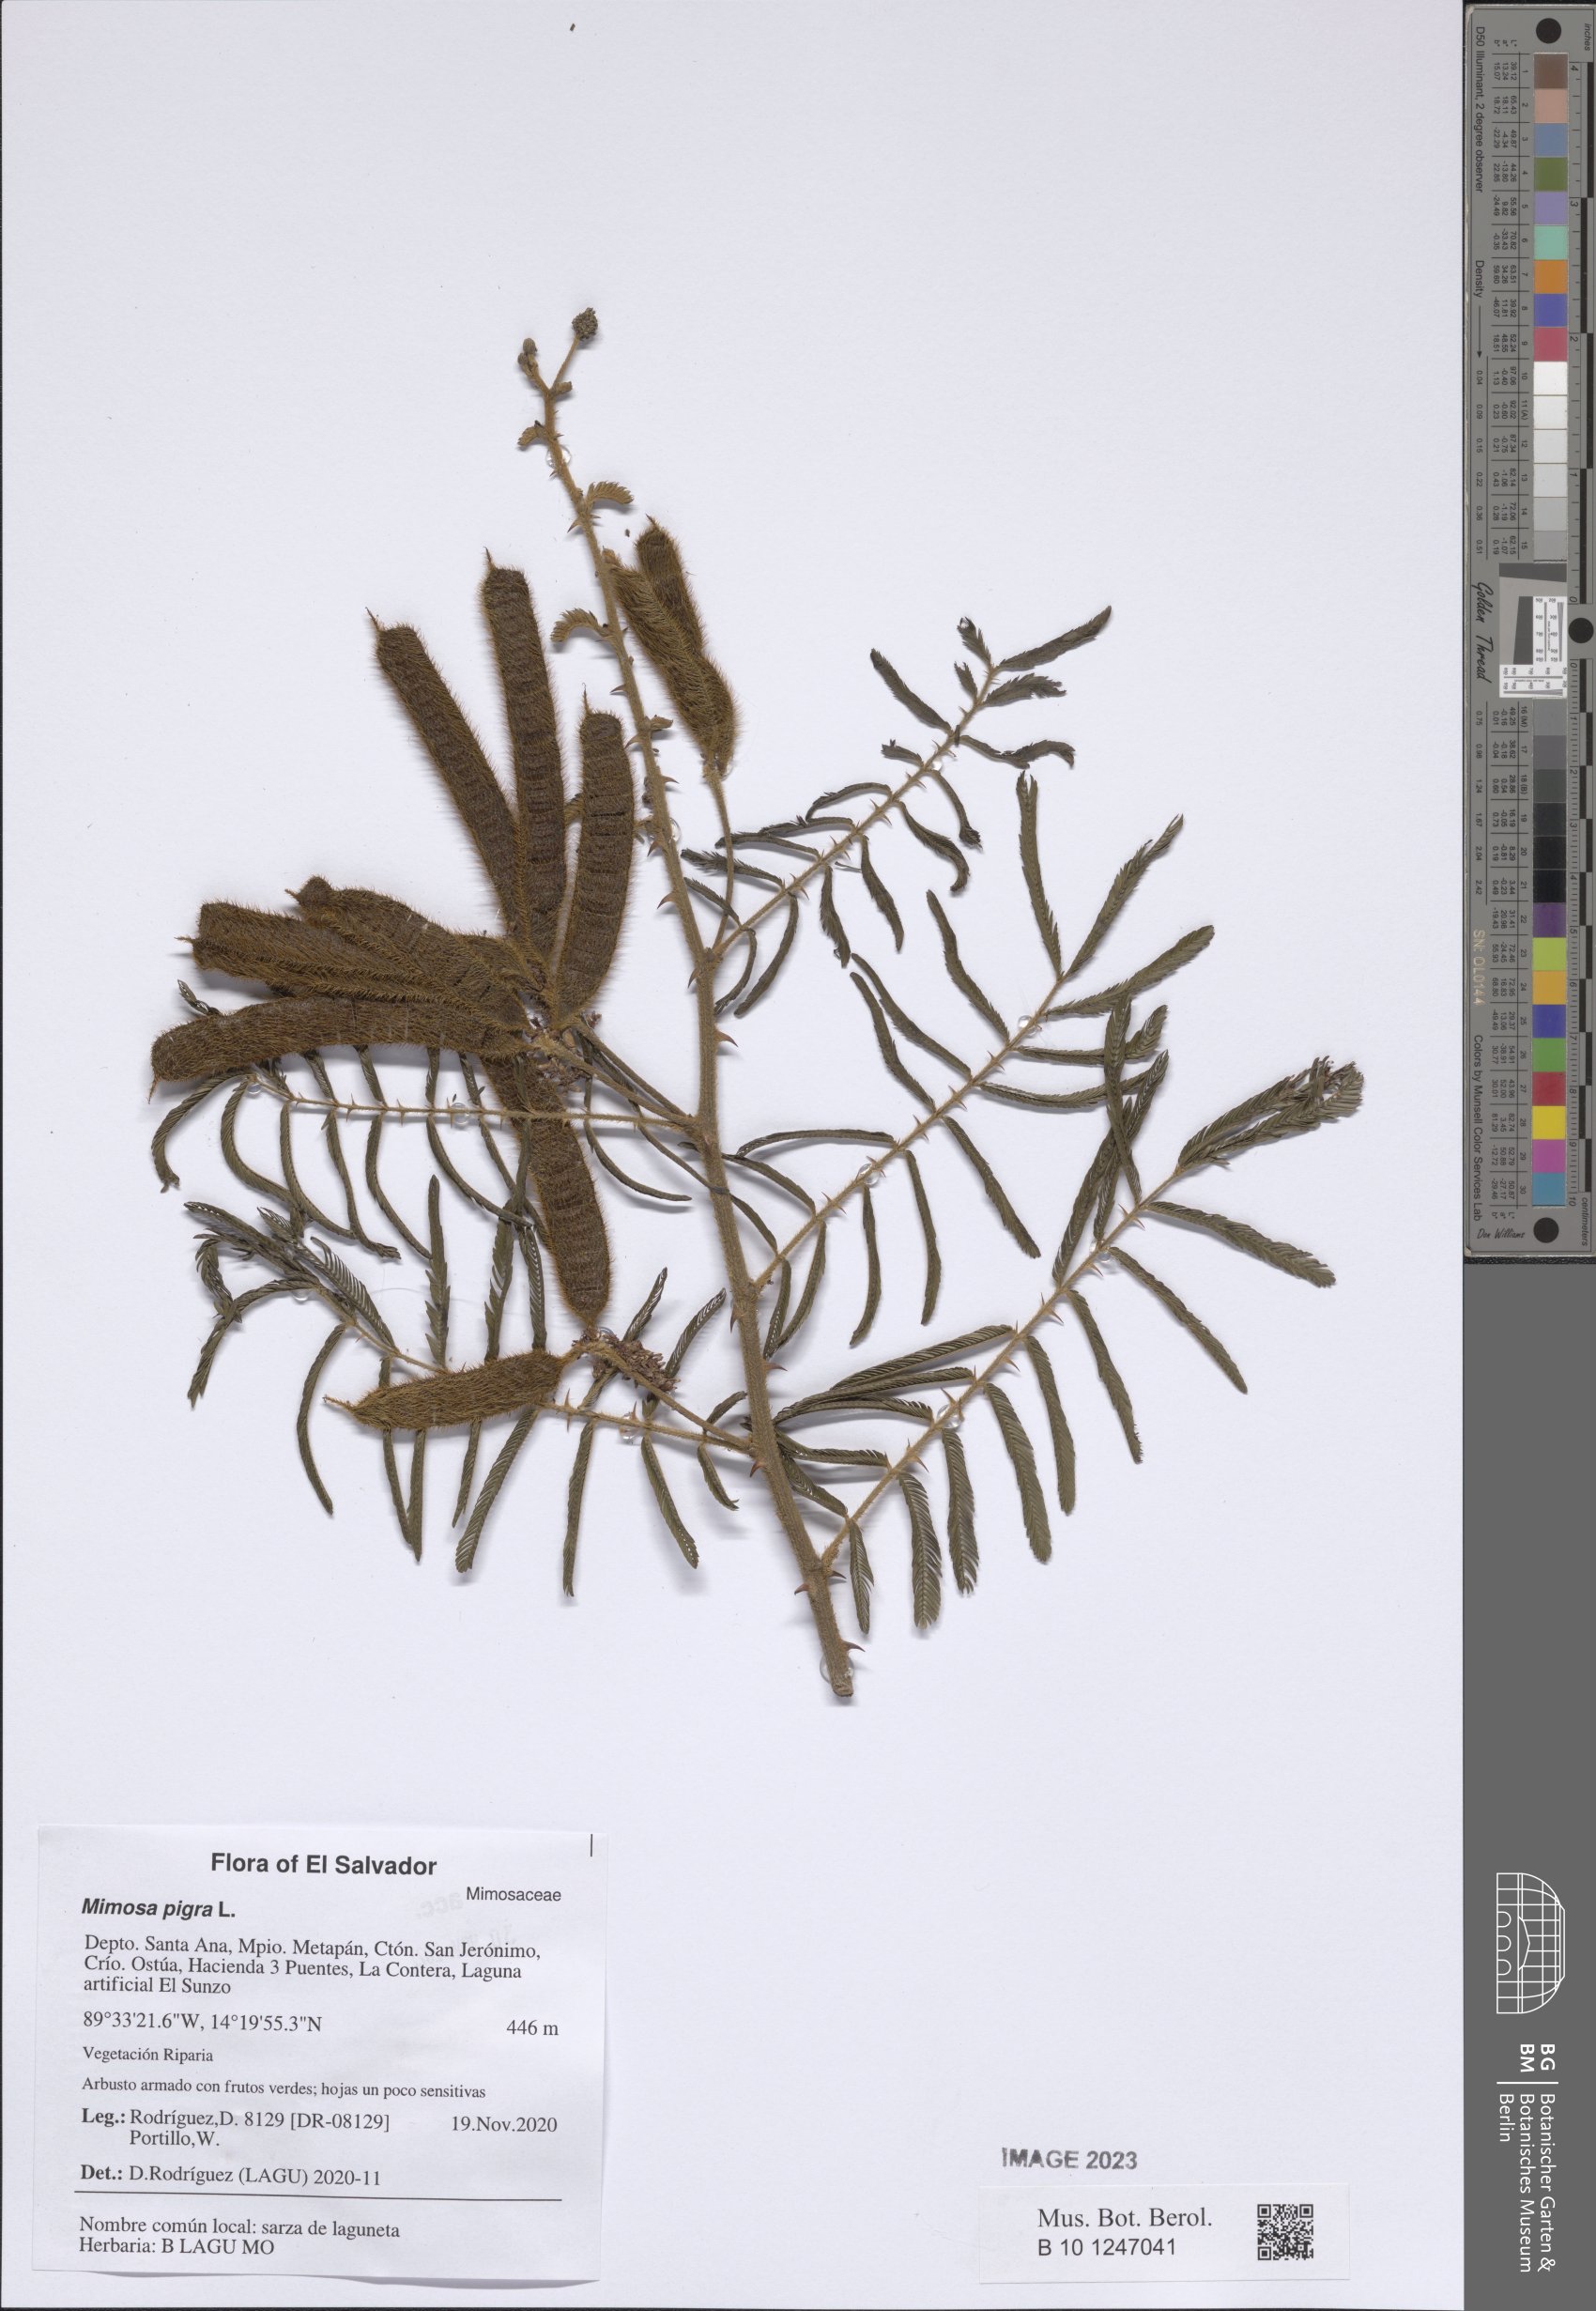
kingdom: Plantae
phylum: Tracheophyta
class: Magnoliopsida
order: Fabales
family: Fabaceae
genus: Mimosa
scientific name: Mimosa pigra
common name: Black mimosa
